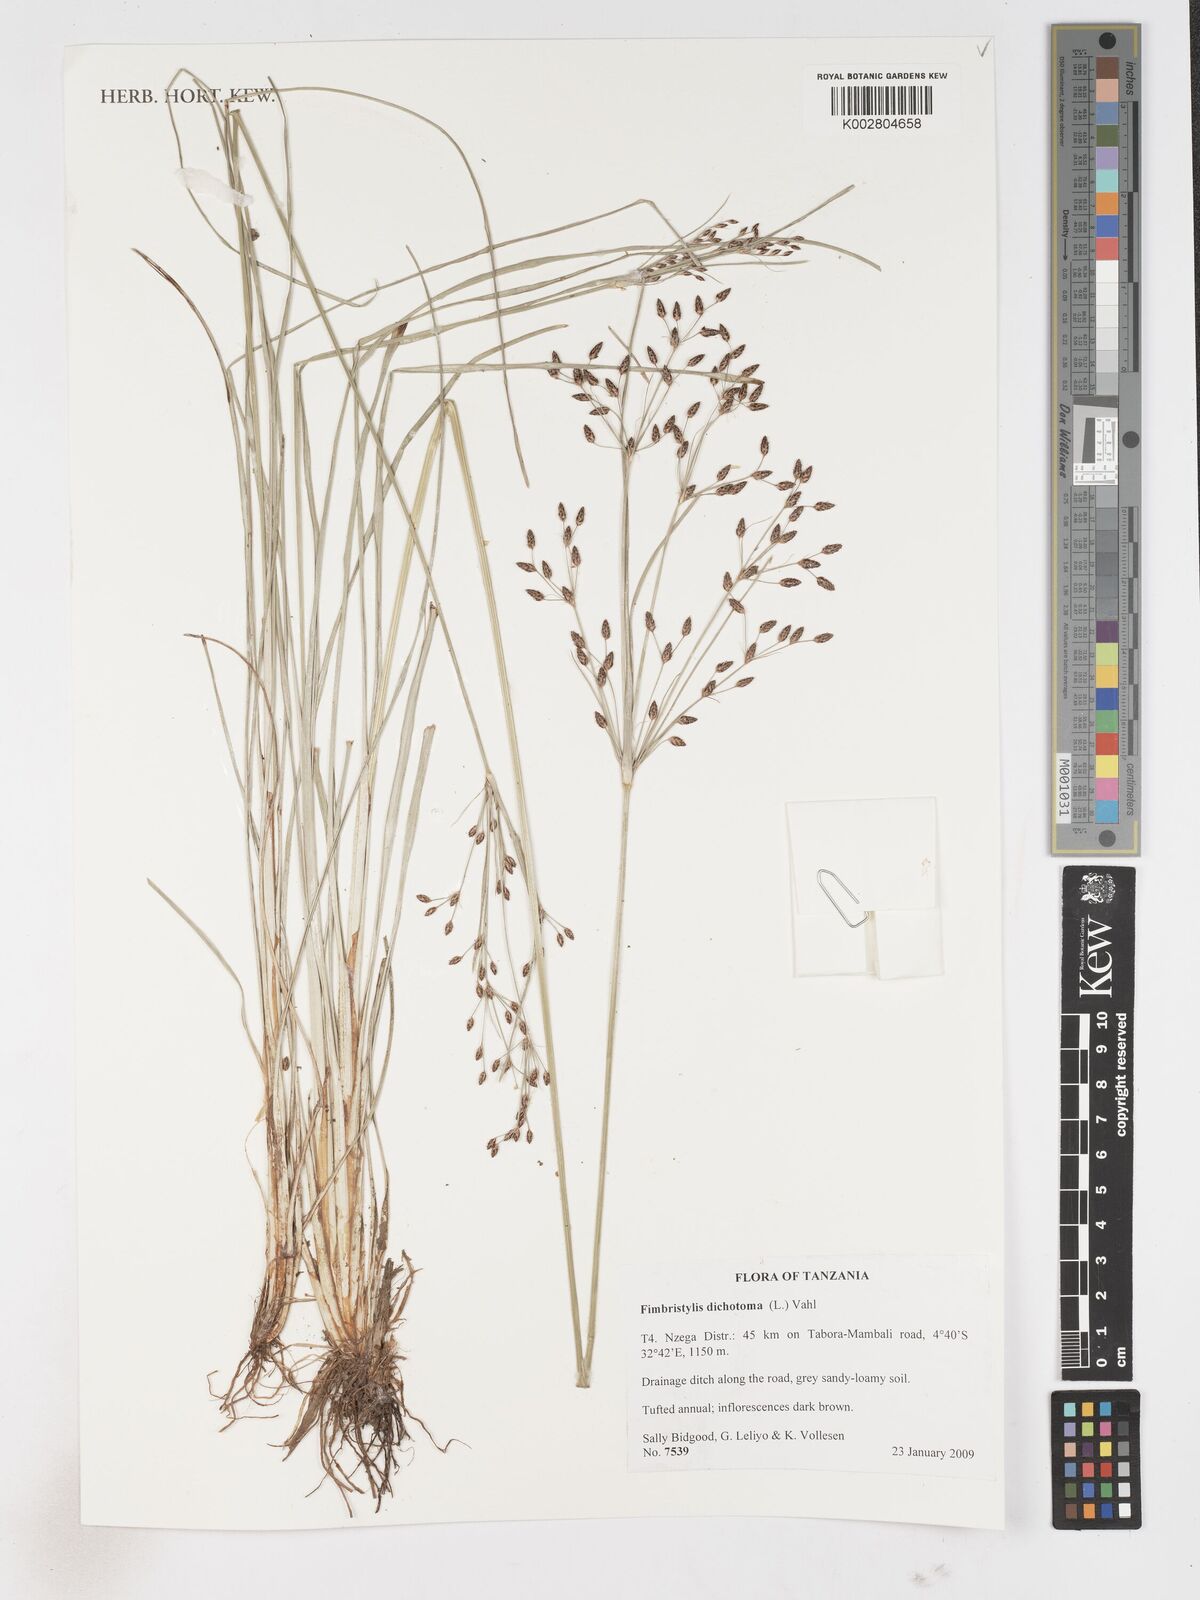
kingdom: Plantae
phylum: Tracheophyta
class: Liliopsida
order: Poales
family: Cyperaceae
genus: Fimbristylis
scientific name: Fimbristylis dichotoma
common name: Forked fimbry
